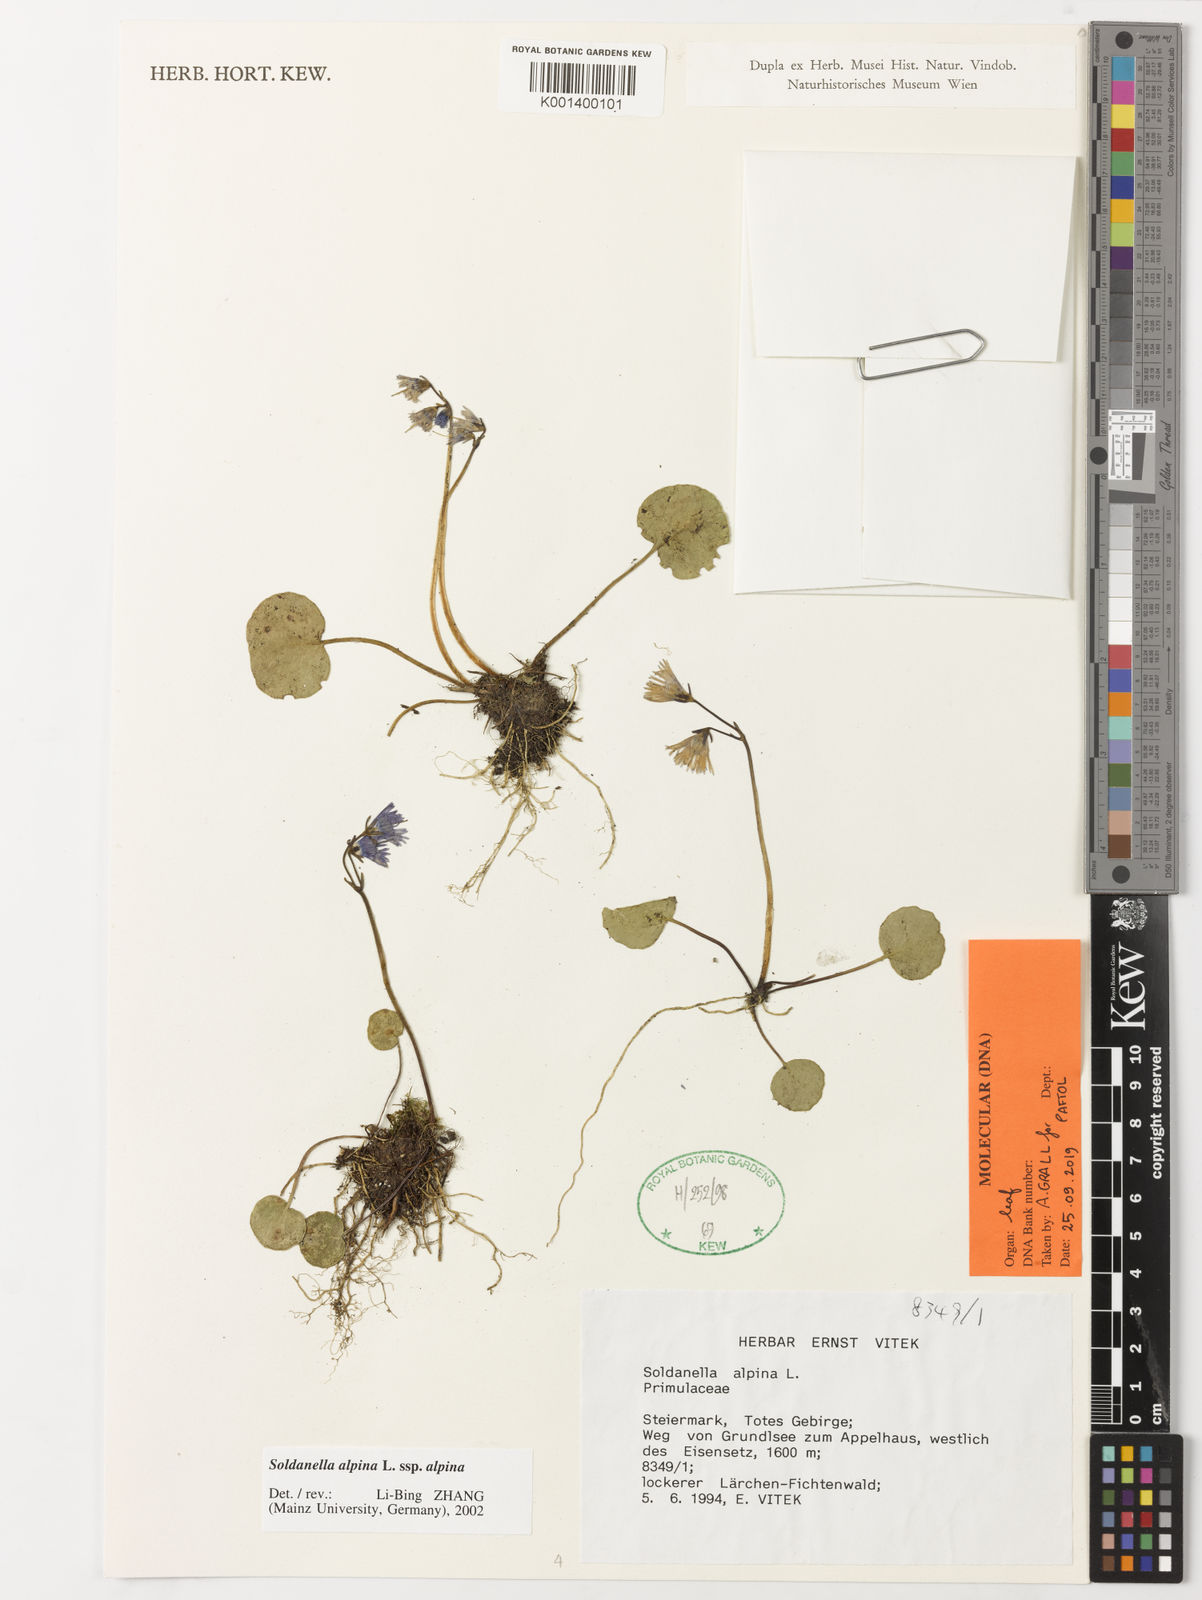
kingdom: Plantae
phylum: Tracheophyta
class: Magnoliopsida
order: Ericales
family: Primulaceae
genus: Soldanella
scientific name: Soldanella alpina
